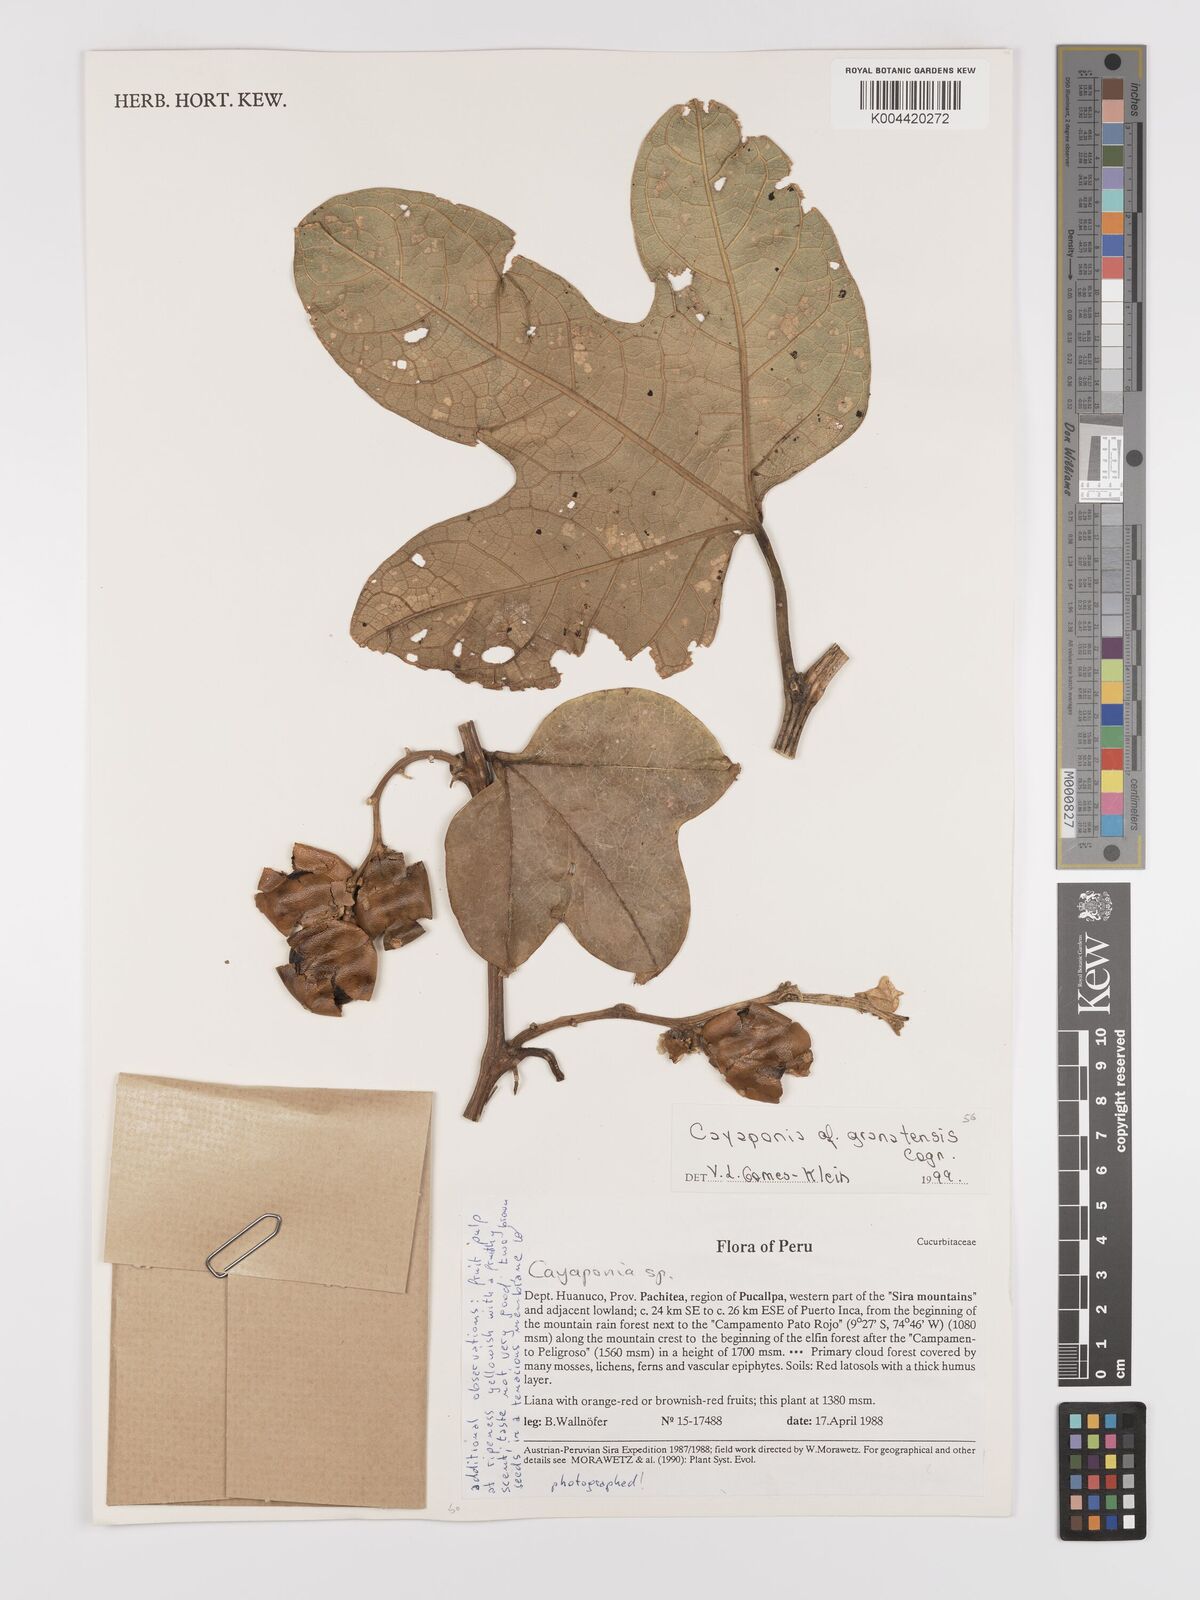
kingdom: Plantae
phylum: Tracheophyta
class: Magnoliopsida
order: Cucurbitales
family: Cucurbitaceae
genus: Cayaponia
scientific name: Cayaponia granatensis
